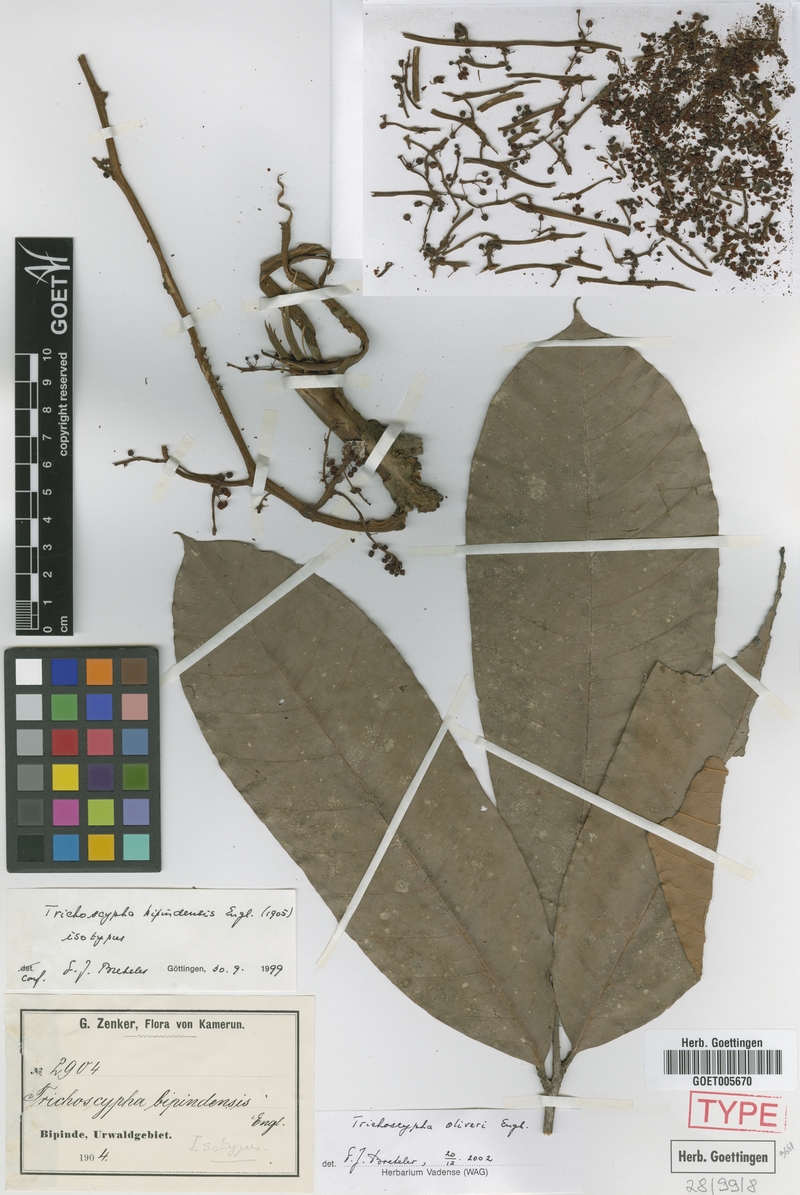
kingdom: Plantae
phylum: Tracheophyta
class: Magnoliopsida
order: Sapindales
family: Anacardiaceae
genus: Trichoscypha
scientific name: Trichoscypha oliveri
